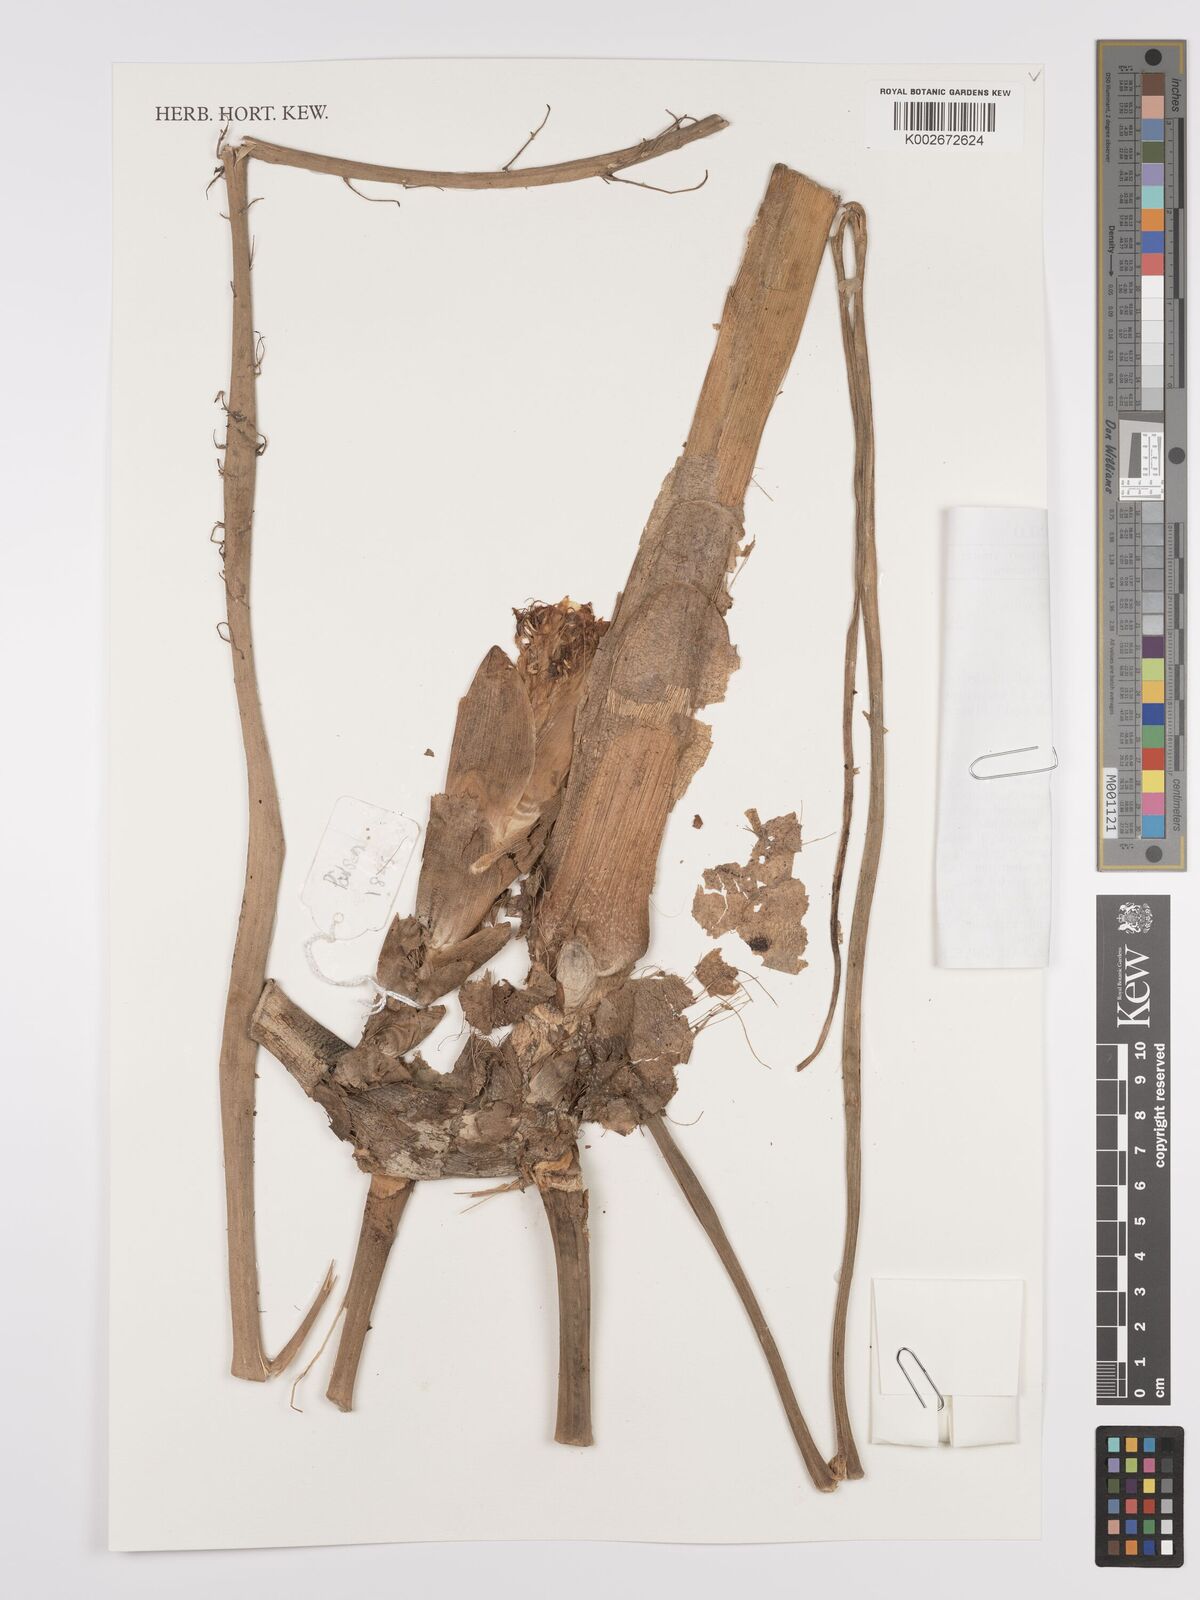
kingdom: Plantae
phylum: Tracheophyta
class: Liliopsida
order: Zingiberales
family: Zingiberaceae
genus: Etlingera
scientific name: Etlingera crispata
